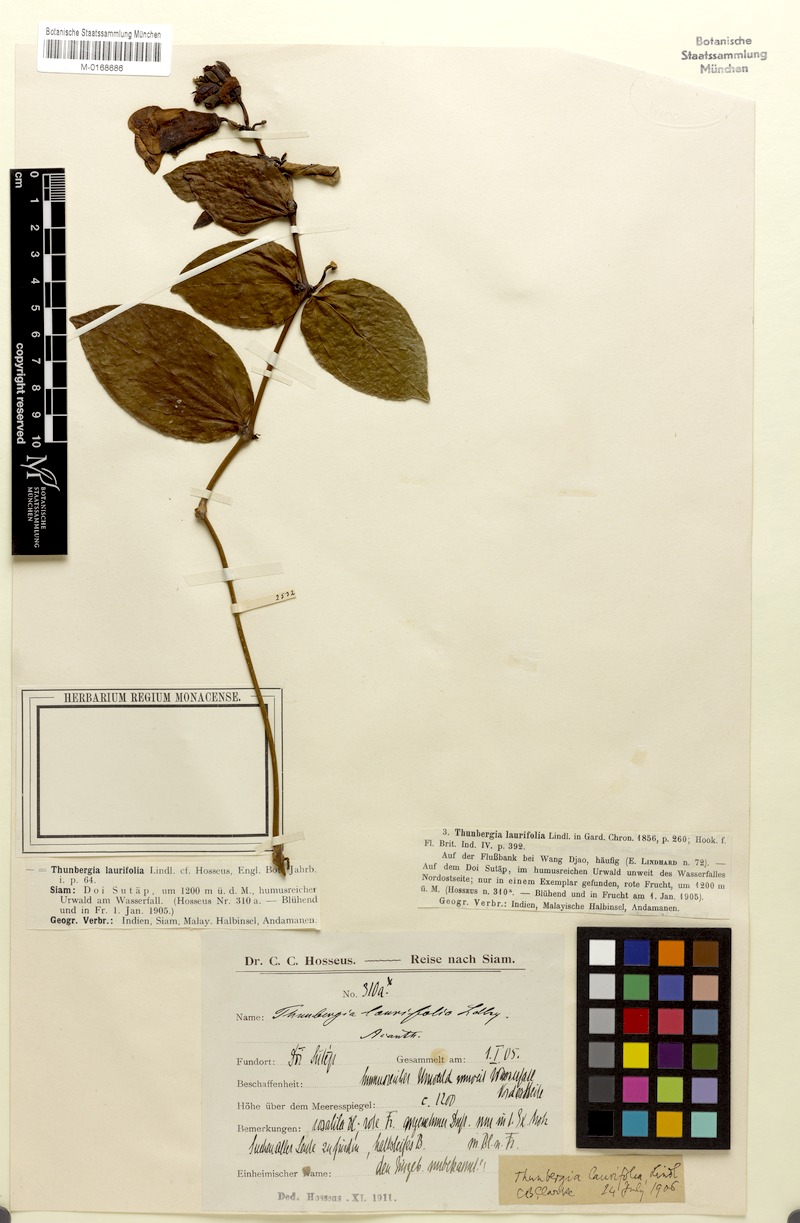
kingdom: Plantae
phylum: Tracheophyta
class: Magnoliopsida
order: Lamiales
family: Acanthaceae
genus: Thunbergia
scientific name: Thunbergia laurifolia
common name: Laurel-leaved thunbergia
